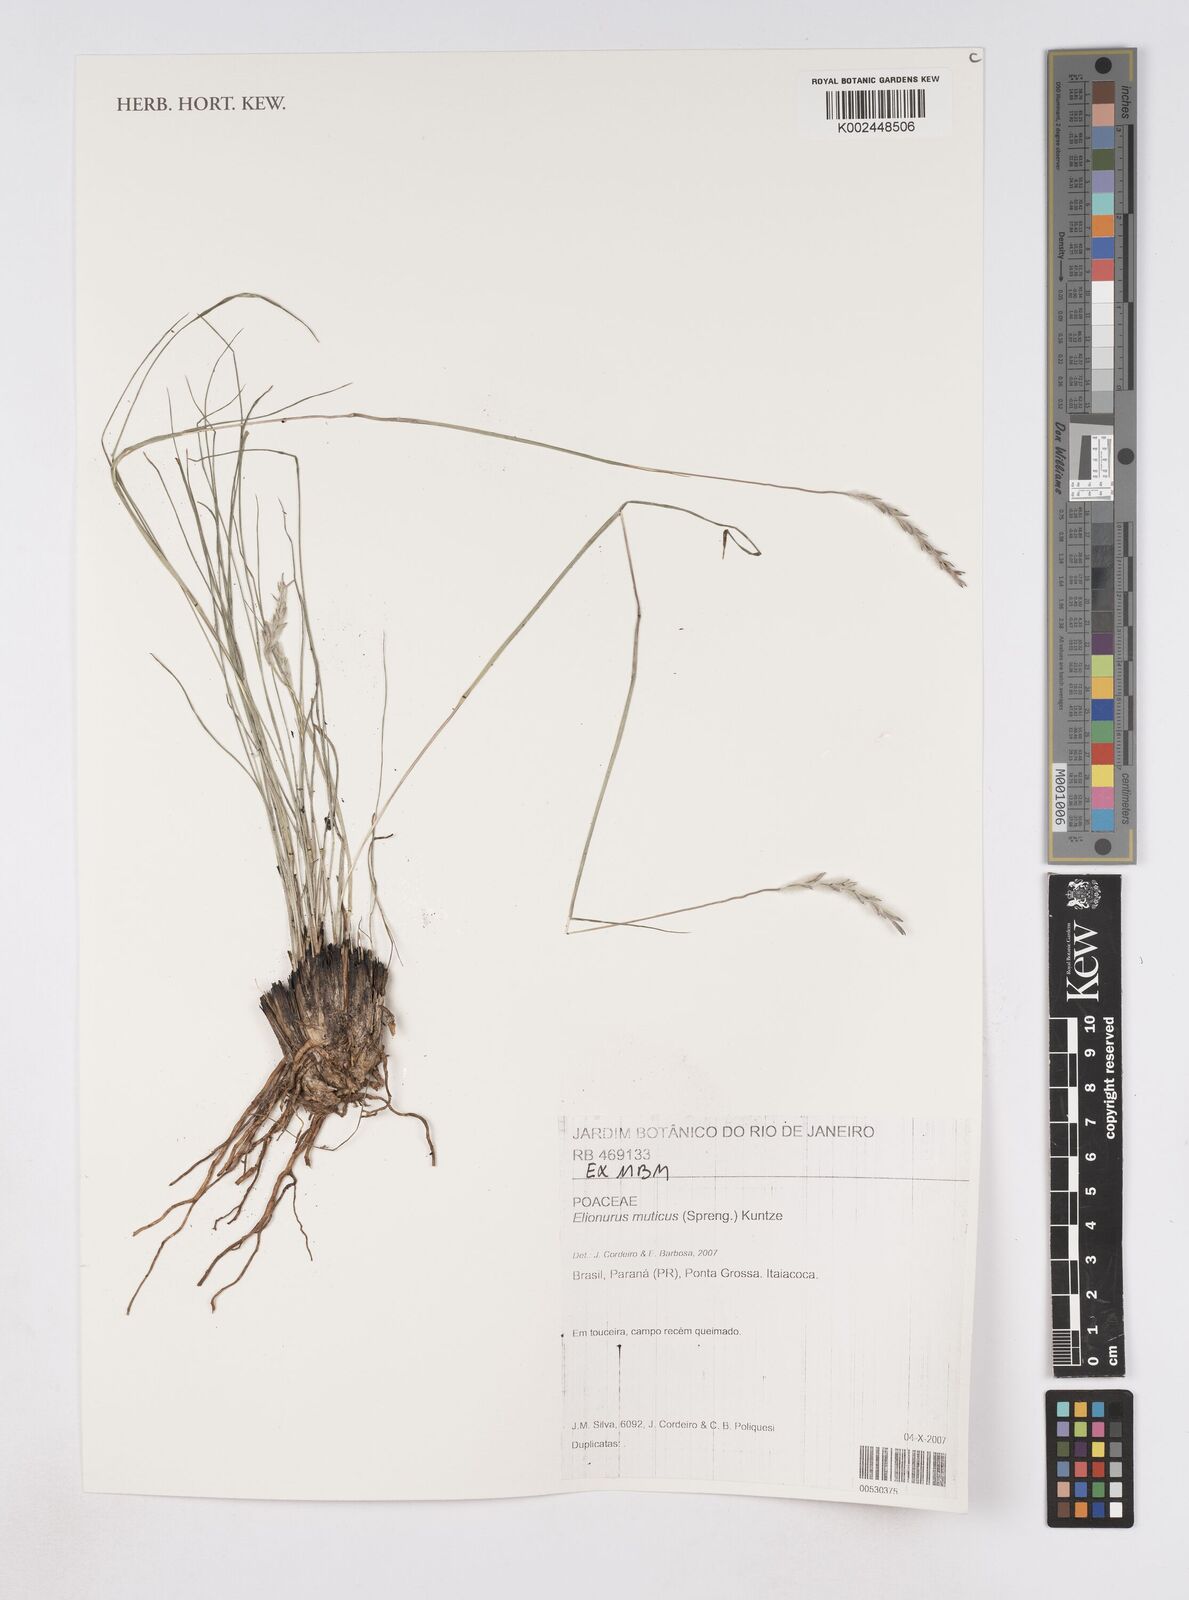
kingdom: Plantae
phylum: Tracheophyta
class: Liliopsida
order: Poales
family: Poaceae
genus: Elionurus
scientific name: Elionurus muticus
